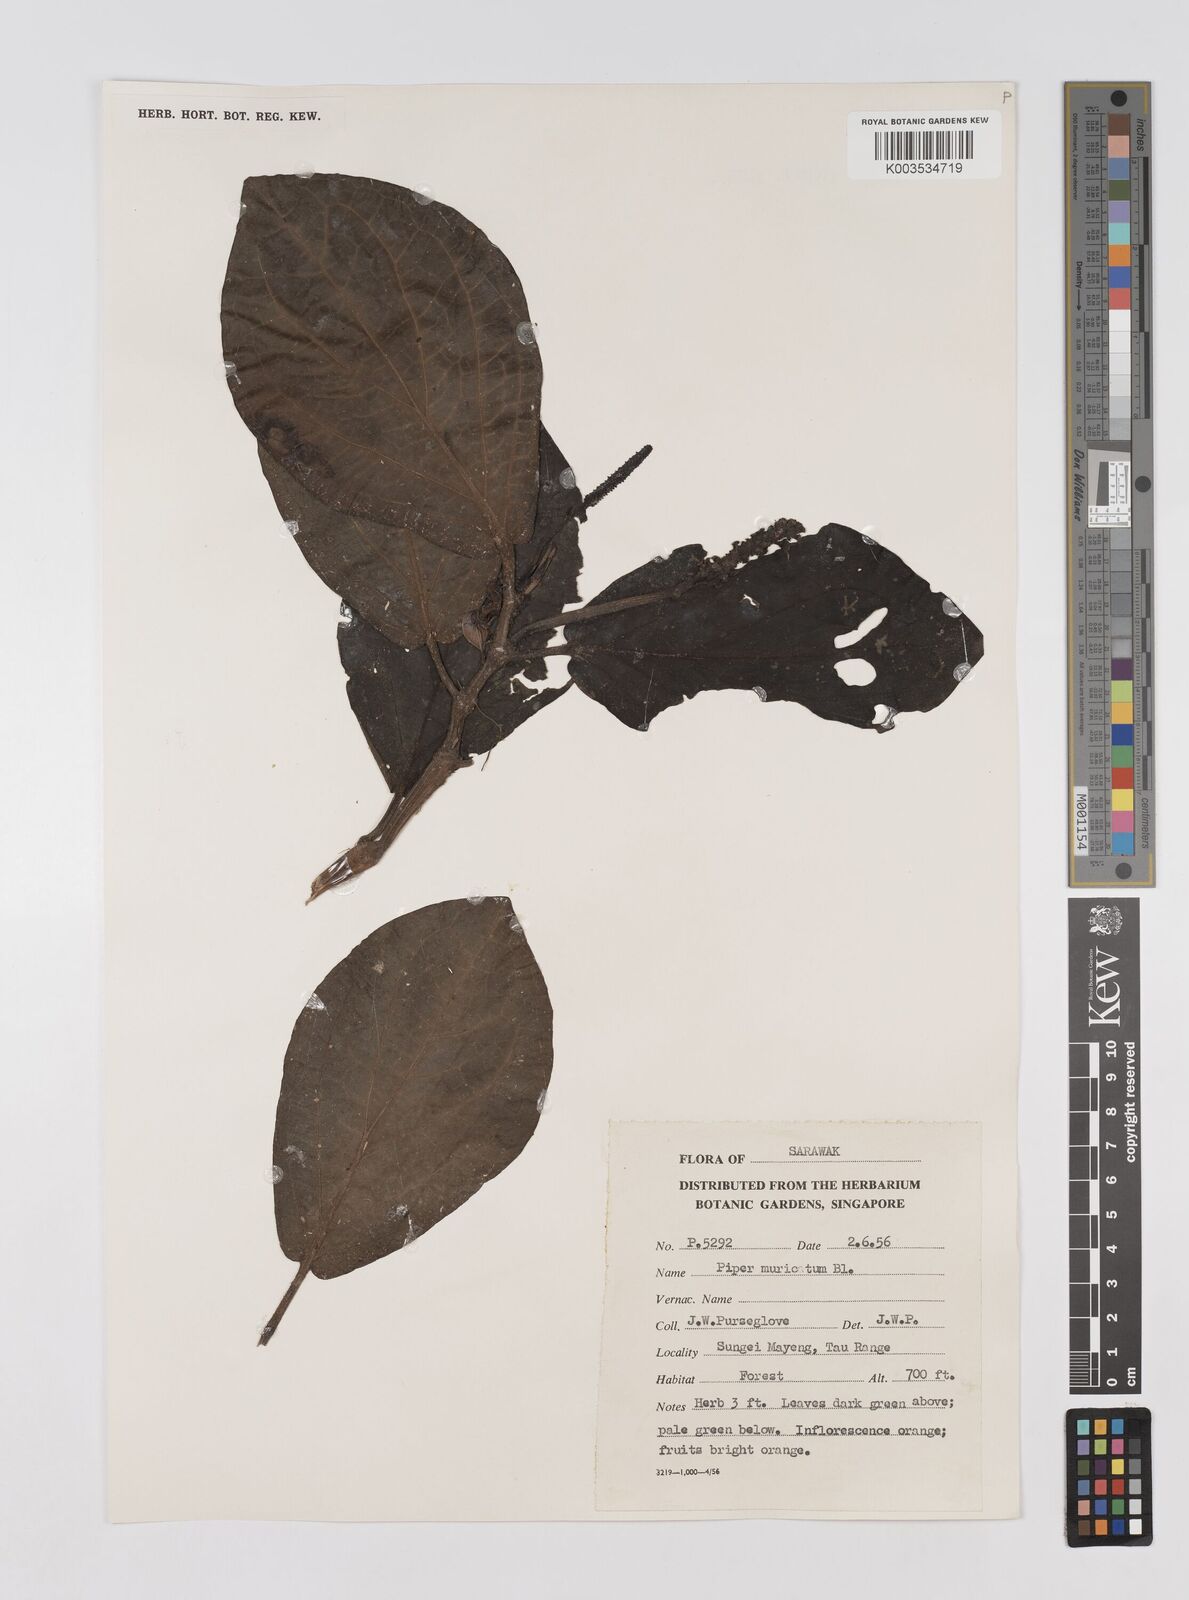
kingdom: Plantae
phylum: Tracheophyta
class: Magnoliopsida
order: Piperales
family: Piperaceae
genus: Piper
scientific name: Piper muricatum
